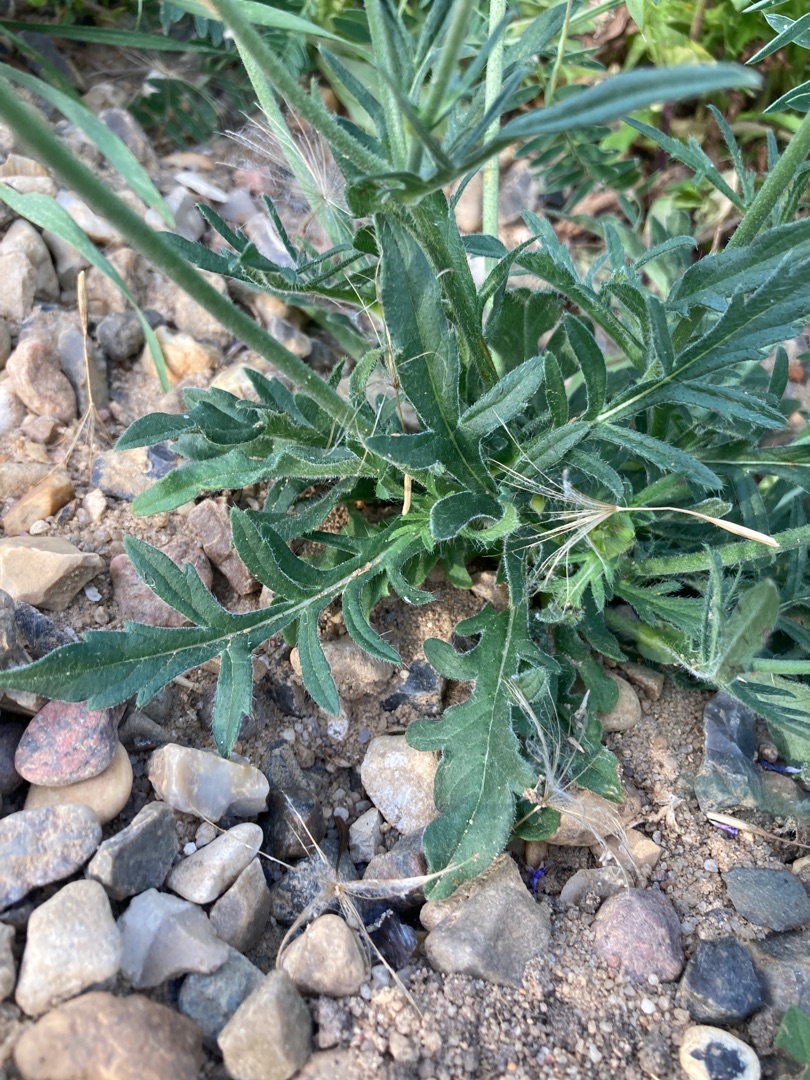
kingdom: Plantae
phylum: Tracheophyta
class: Magnoliopsida
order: Dipsacales
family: Caprifoliaceae
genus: Knautia
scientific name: Knautia arvensis
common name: Blåhat
